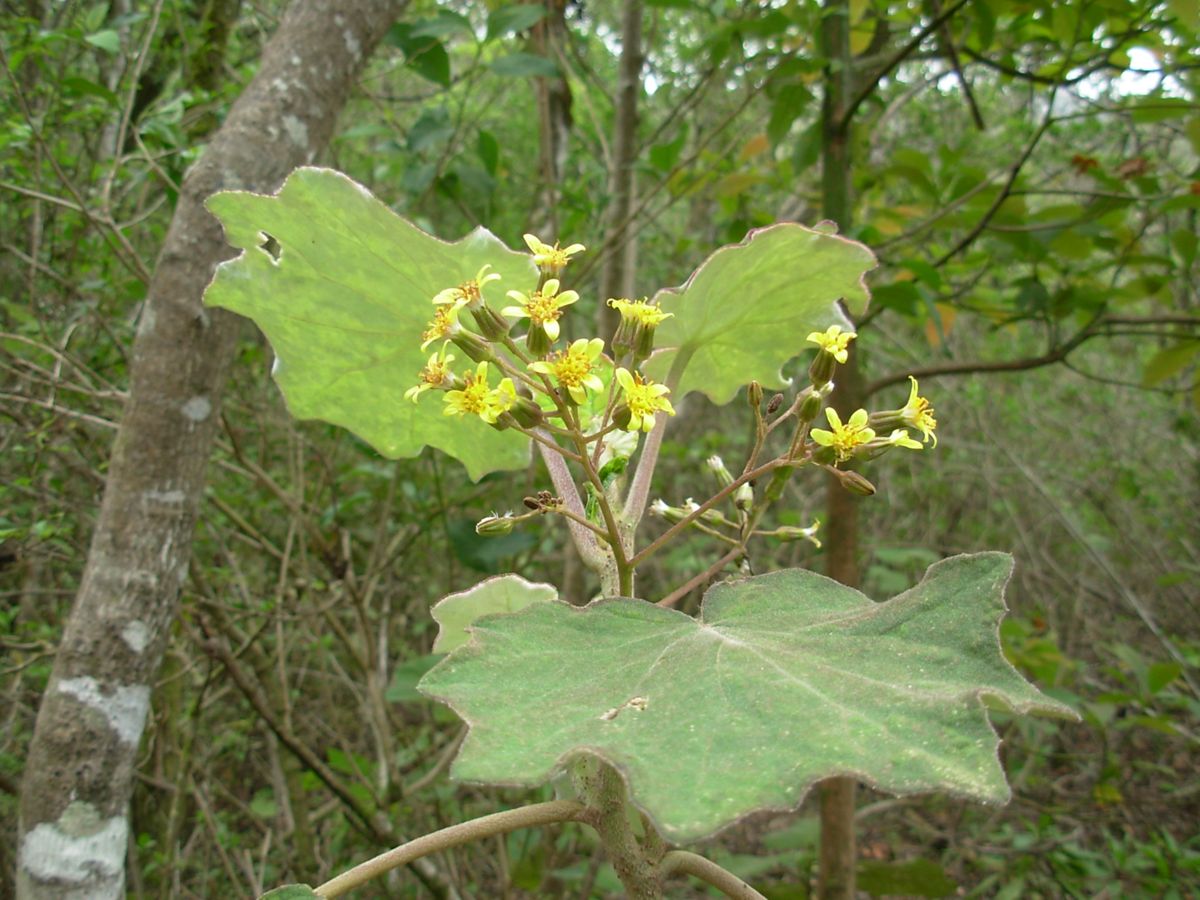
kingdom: Plantae
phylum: Tracheophyta
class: Magnoliopsida
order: Asterales
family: Asteraceae
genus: Roldana
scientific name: Roldana petasitis
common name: California-geranium
